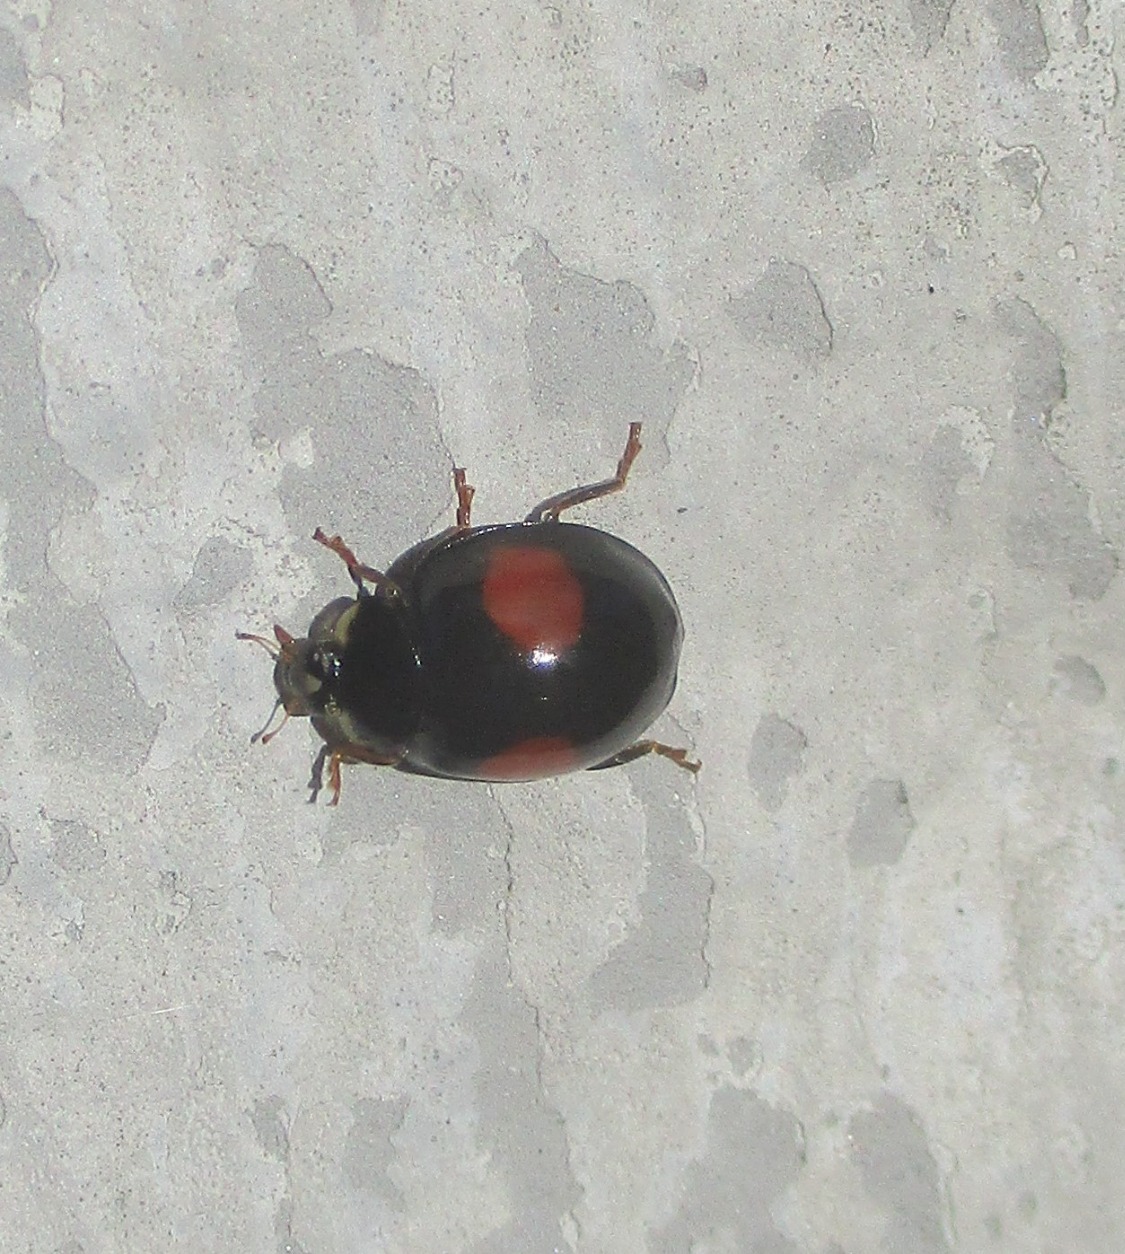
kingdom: Animalia
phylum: Arthropoda
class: Insecta
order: Coleoptera
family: Coccinellidae
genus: Harmonia
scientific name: Harmonia axyridis
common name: Harlekinmariehøne
